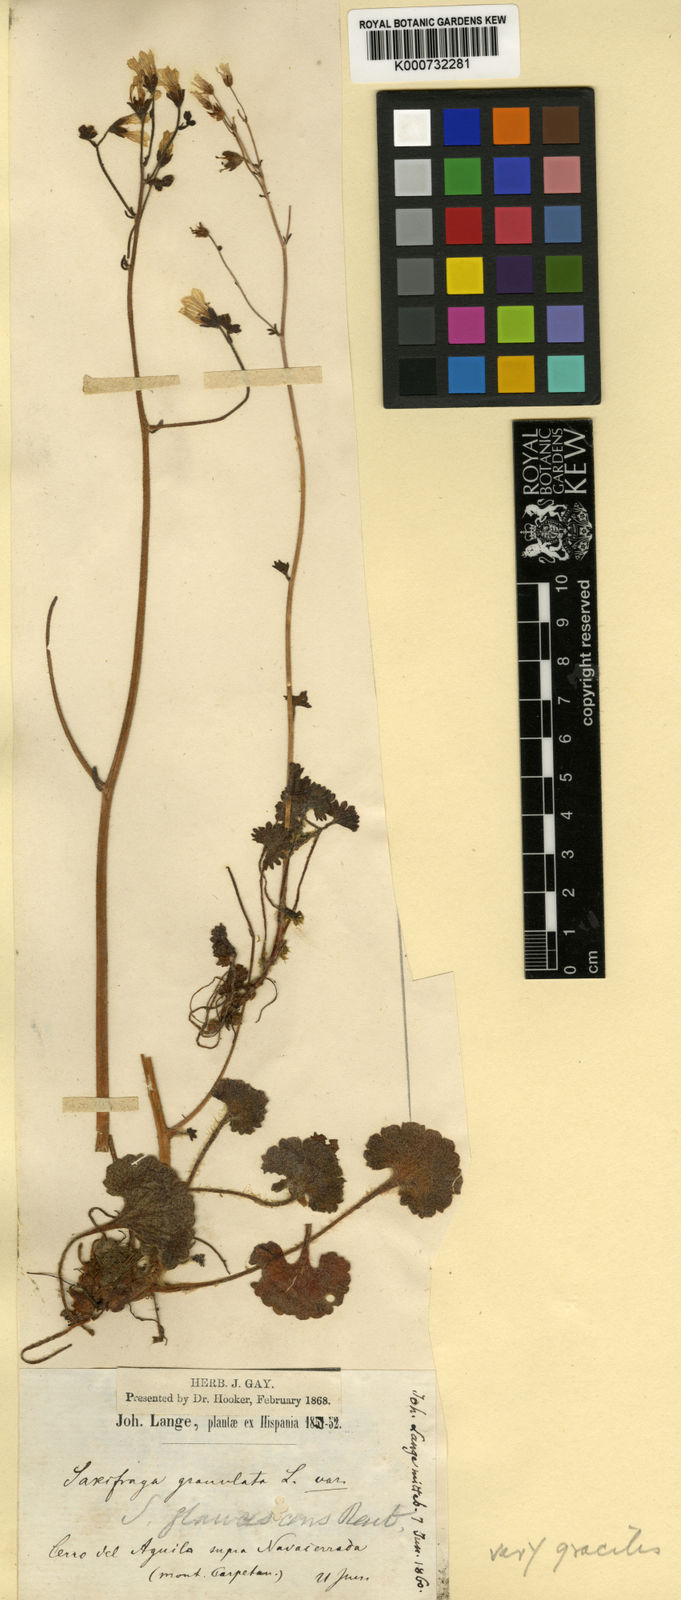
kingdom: Plantae
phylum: Tracheophyta
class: Magnoliopsida
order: Saxifragales
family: Saxifragaceae
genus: Saxifraga
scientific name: Saxifraga granulata
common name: Meadow saxifrage
